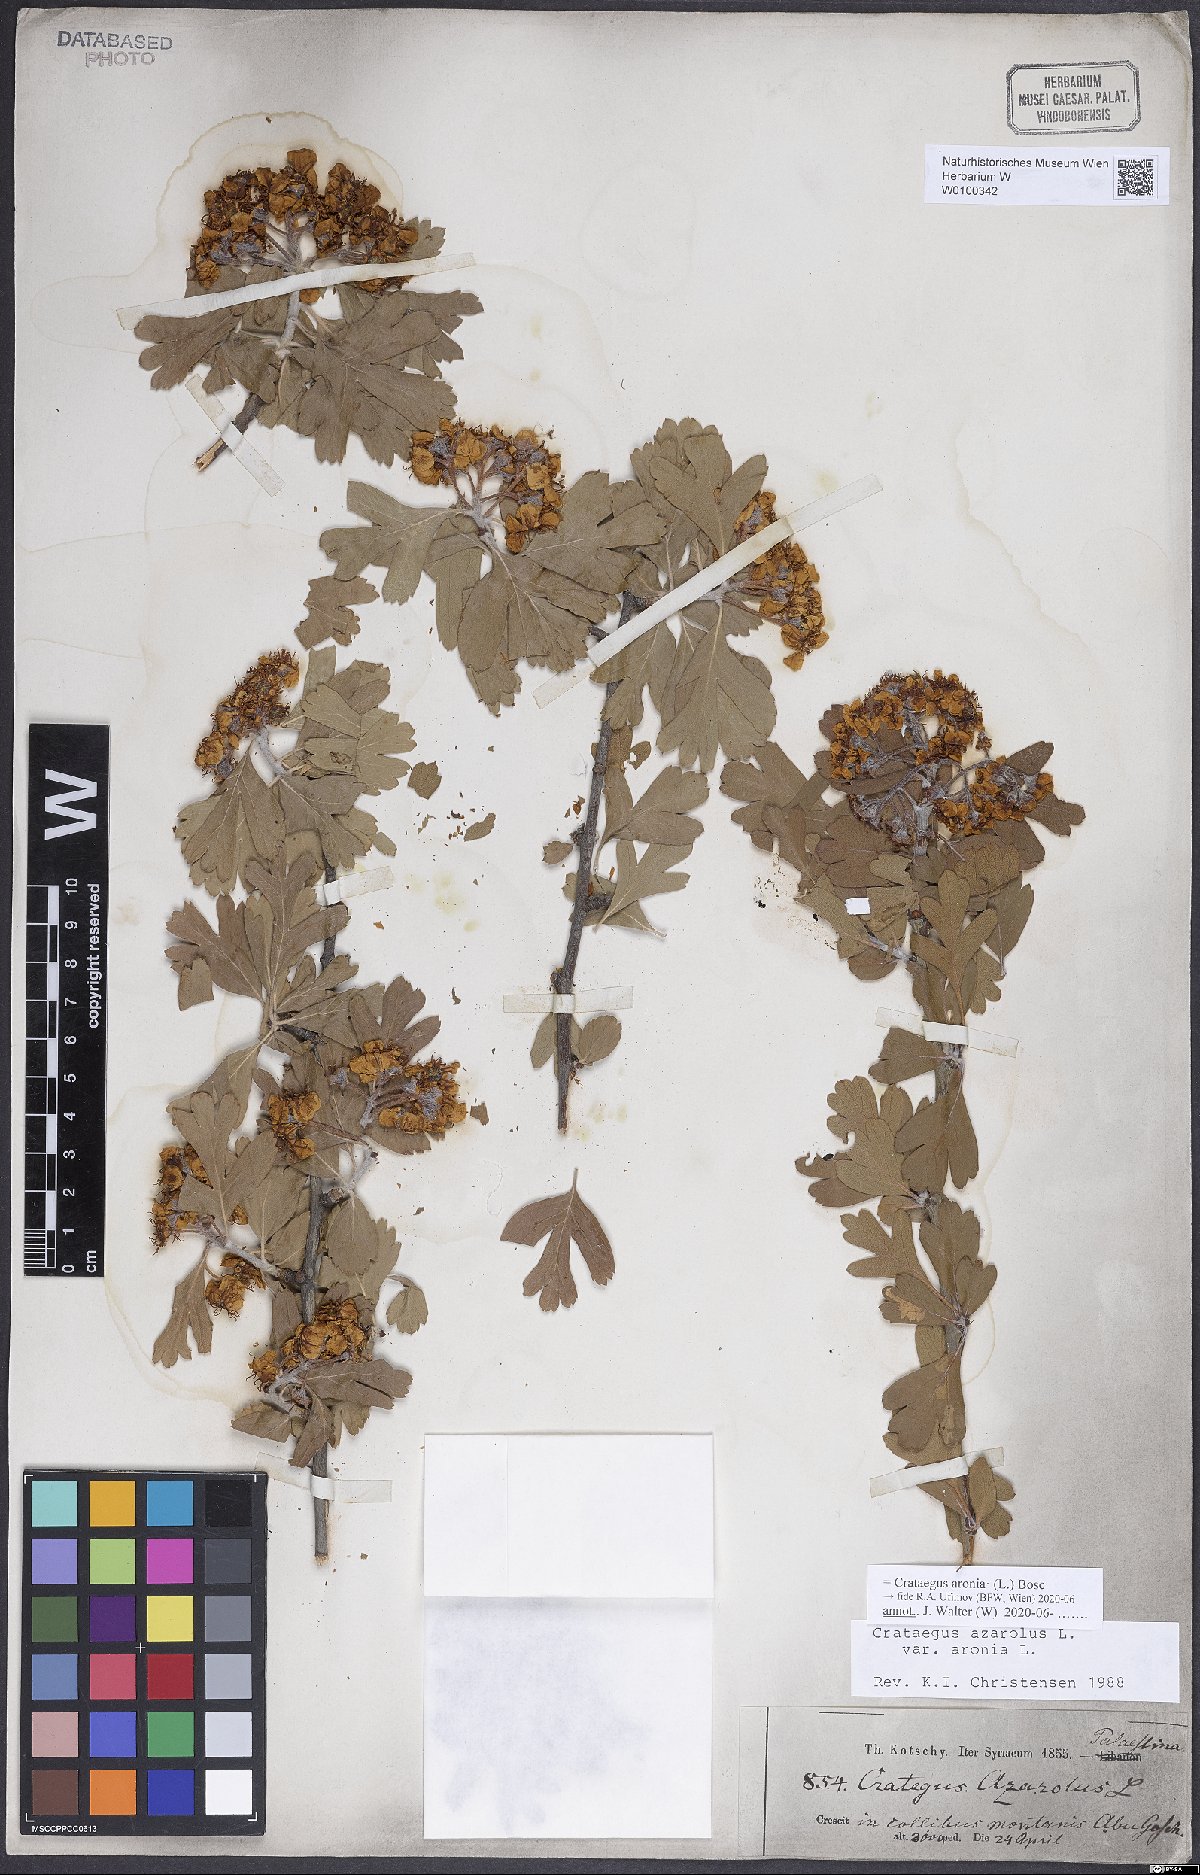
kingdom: Plantae
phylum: Tracheophyta
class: Magnoliopsida
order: Rosales
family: Rosaceae
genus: Crataegus
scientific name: Crataegus azarolus
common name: Azarole
